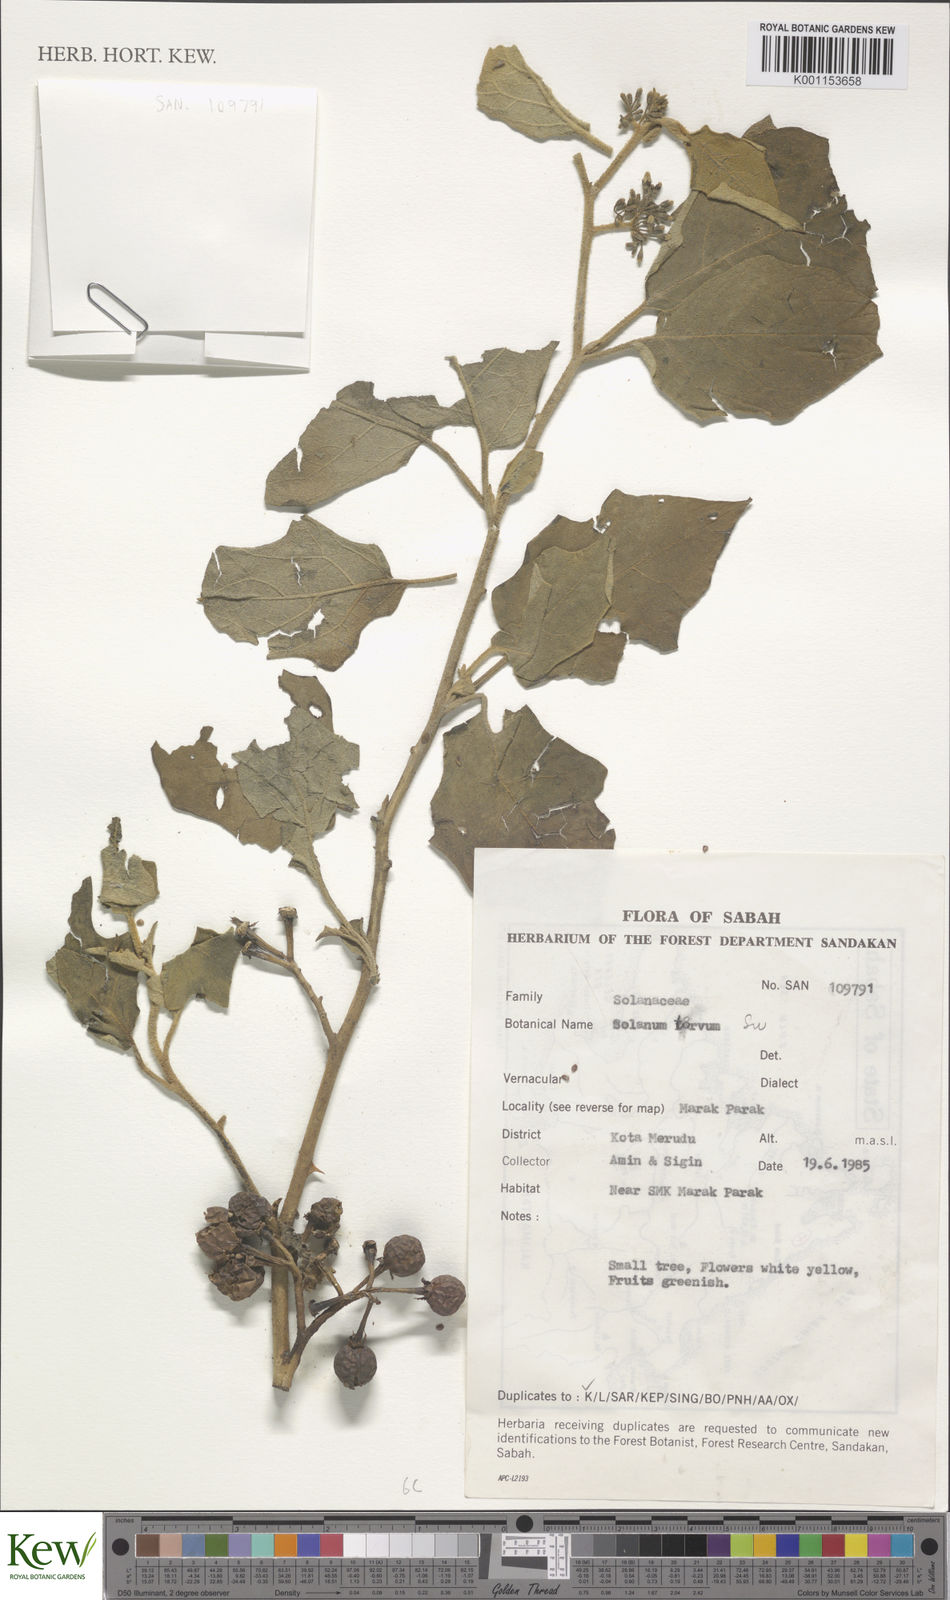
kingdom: Plantae
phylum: Tracheophyta
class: Magnoliopsida
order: Solanales
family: Solanaceae
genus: Solanum
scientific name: Solanum torvum
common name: Turkey berry
